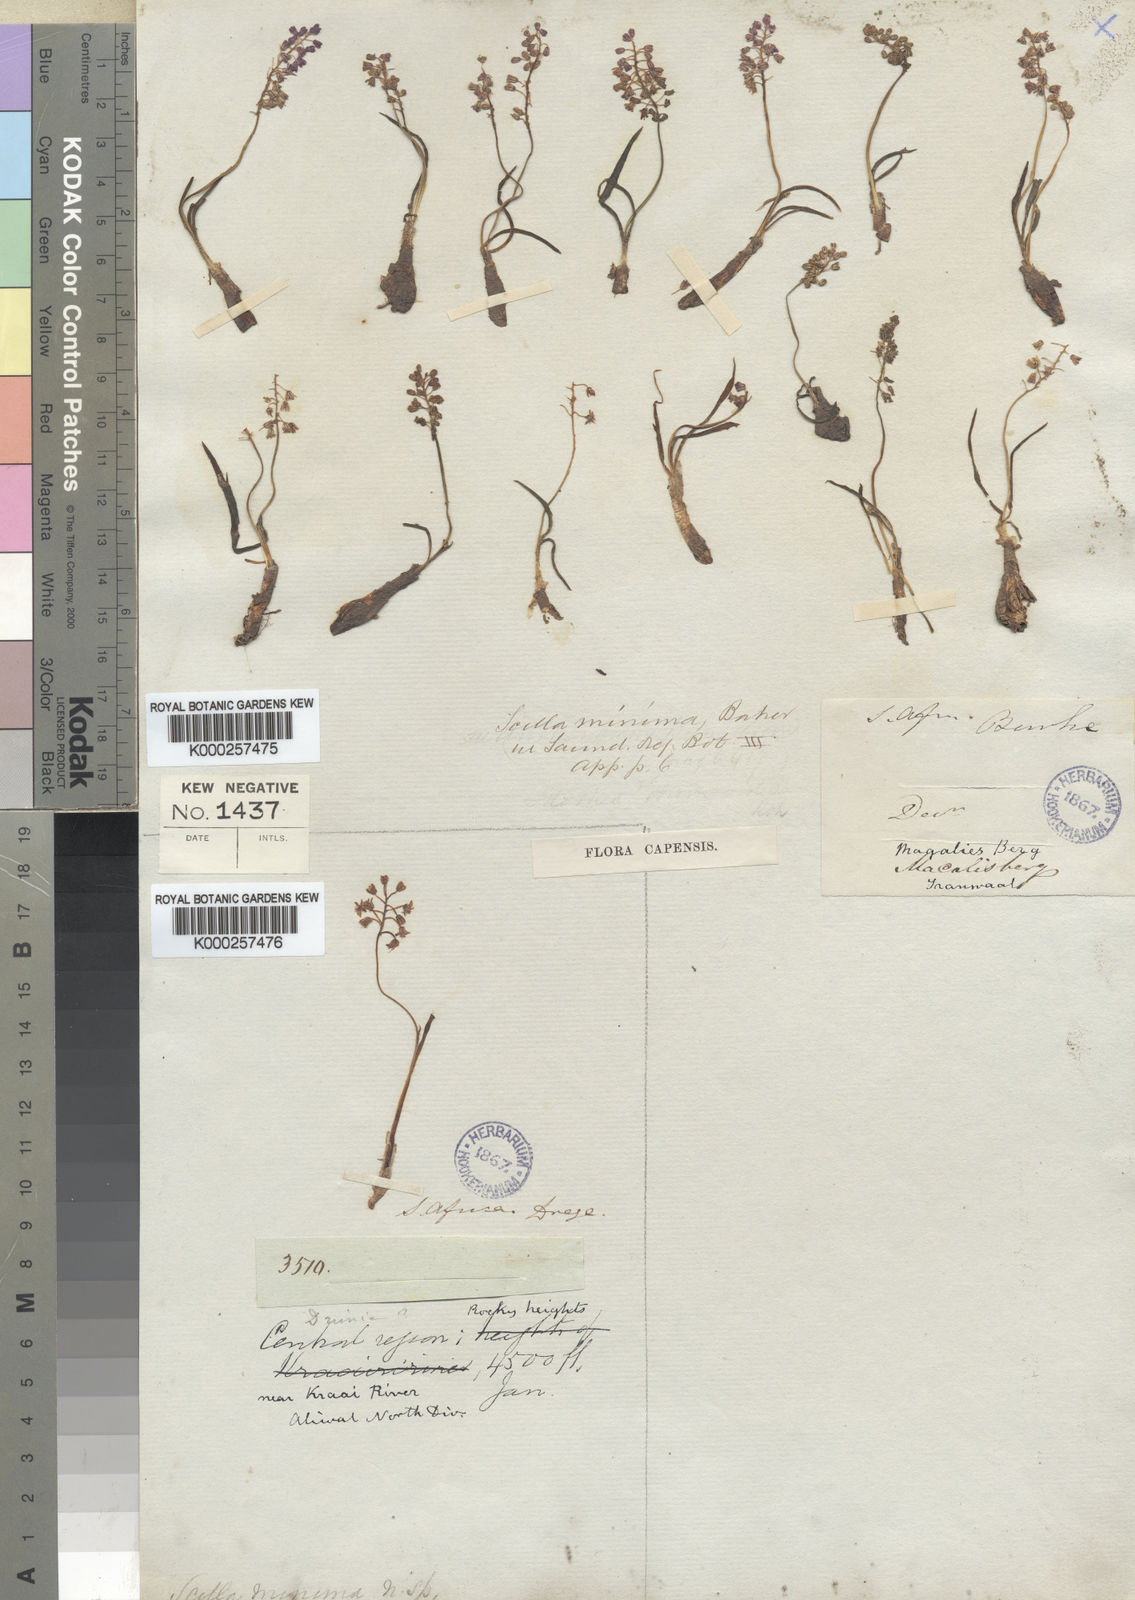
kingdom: Plantae
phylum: Tracheophyta
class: Liliopsida
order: Asparagales
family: Asparagaceae
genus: Ledebouria
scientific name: Ledebouria cooperi
